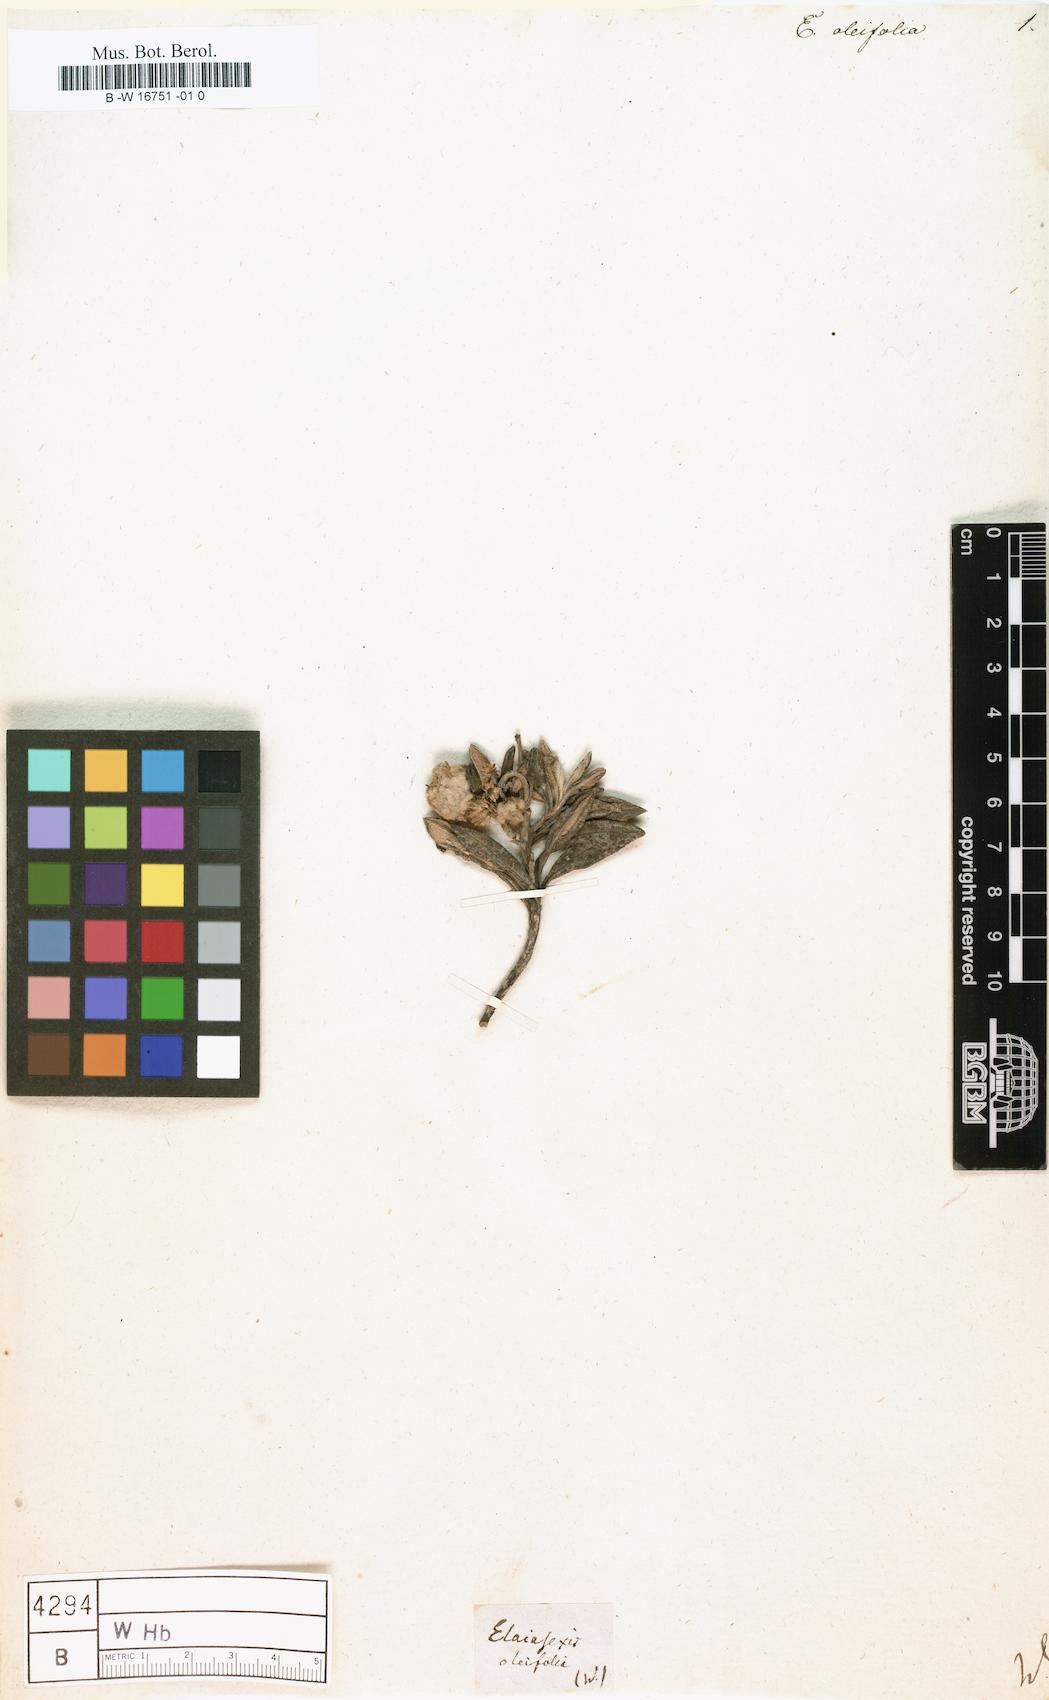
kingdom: Plantae
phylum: Tracheophyta
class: Magnoliopsida
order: Asterales
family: Asteraceae
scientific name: Asteraceae
